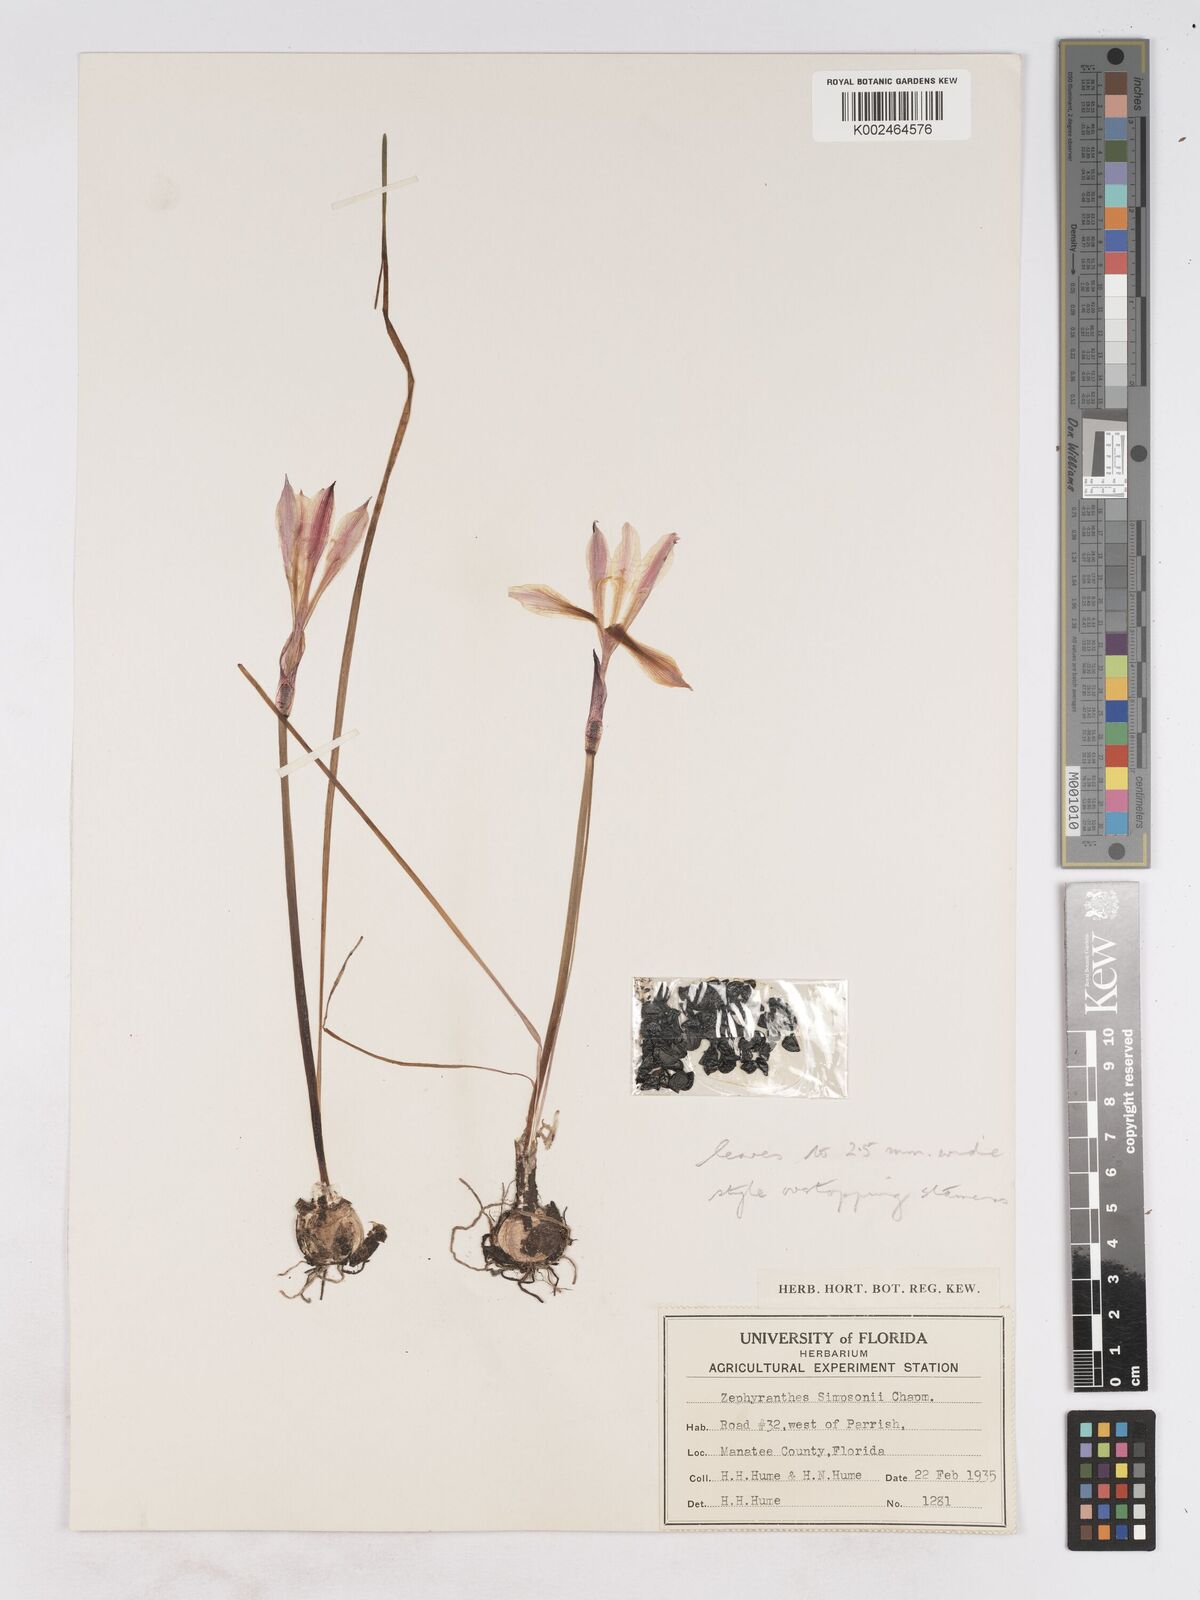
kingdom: Plantae
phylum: Tracheophyta
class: Liliopsida
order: Asparagales
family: Amaryllidaceae
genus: Zephyranthes
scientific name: Zephyranthes simpsonii
